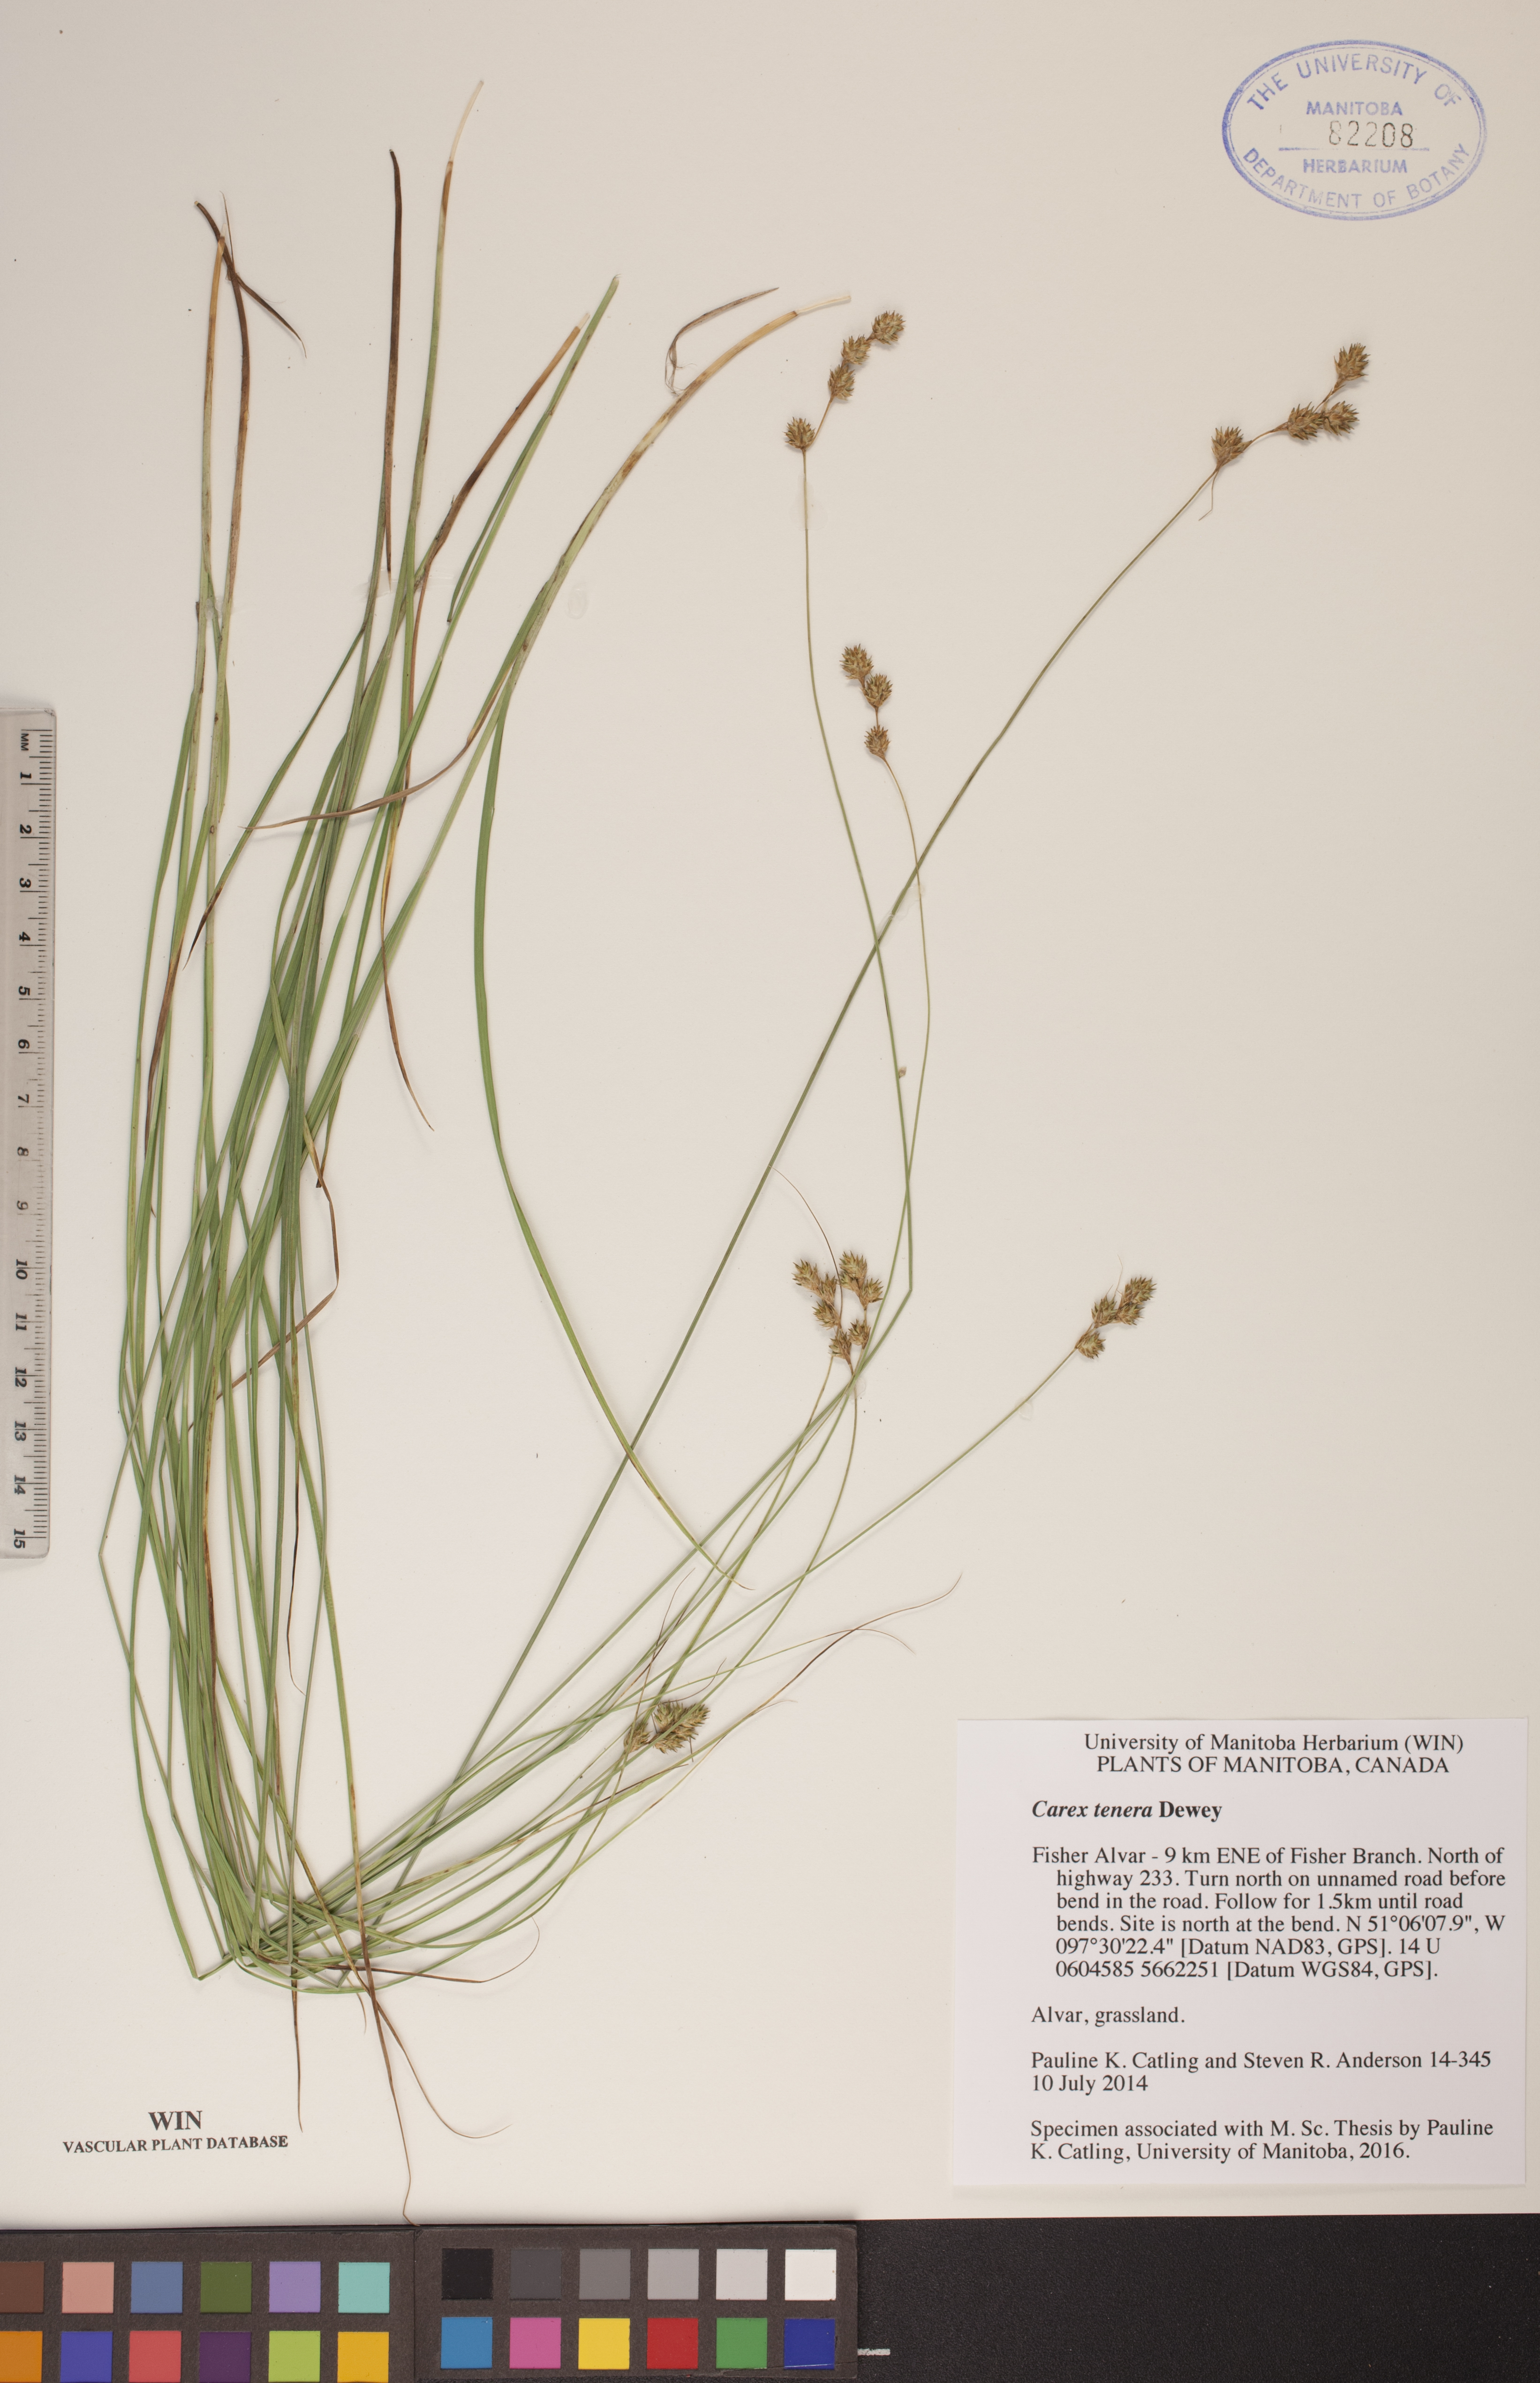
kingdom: Plantae
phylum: Tracheophyta
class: Liliopsida
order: Poales
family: Cyperaceae
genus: Carex
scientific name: Carex tenera
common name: Broad-fruited sedge
